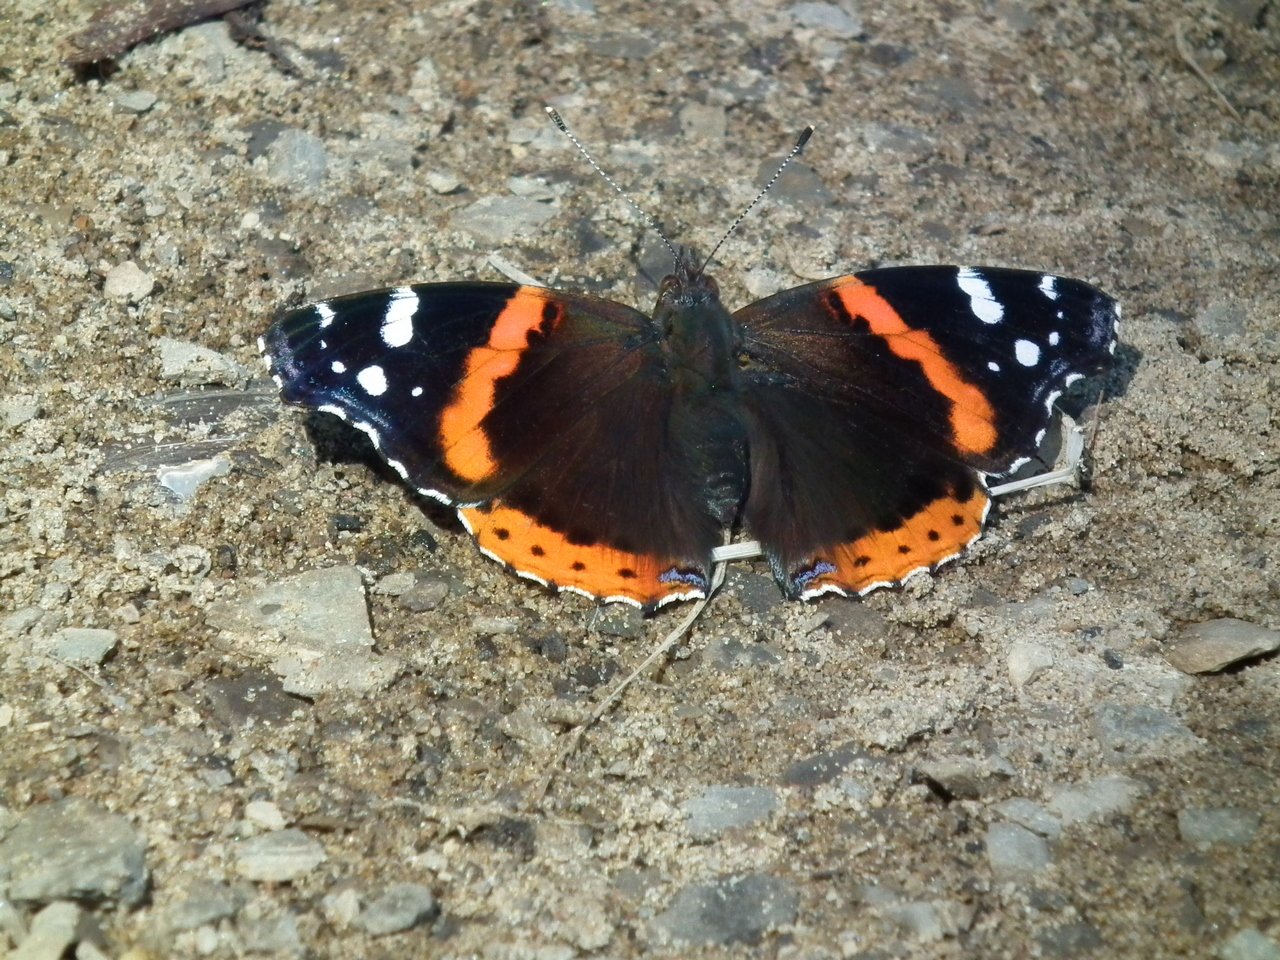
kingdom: Animalia
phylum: Arthropoda
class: Insecta
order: Lepidoptera
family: Nymphalidae
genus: Vanessa
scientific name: Vanessa atalanta
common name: Red Admiral
